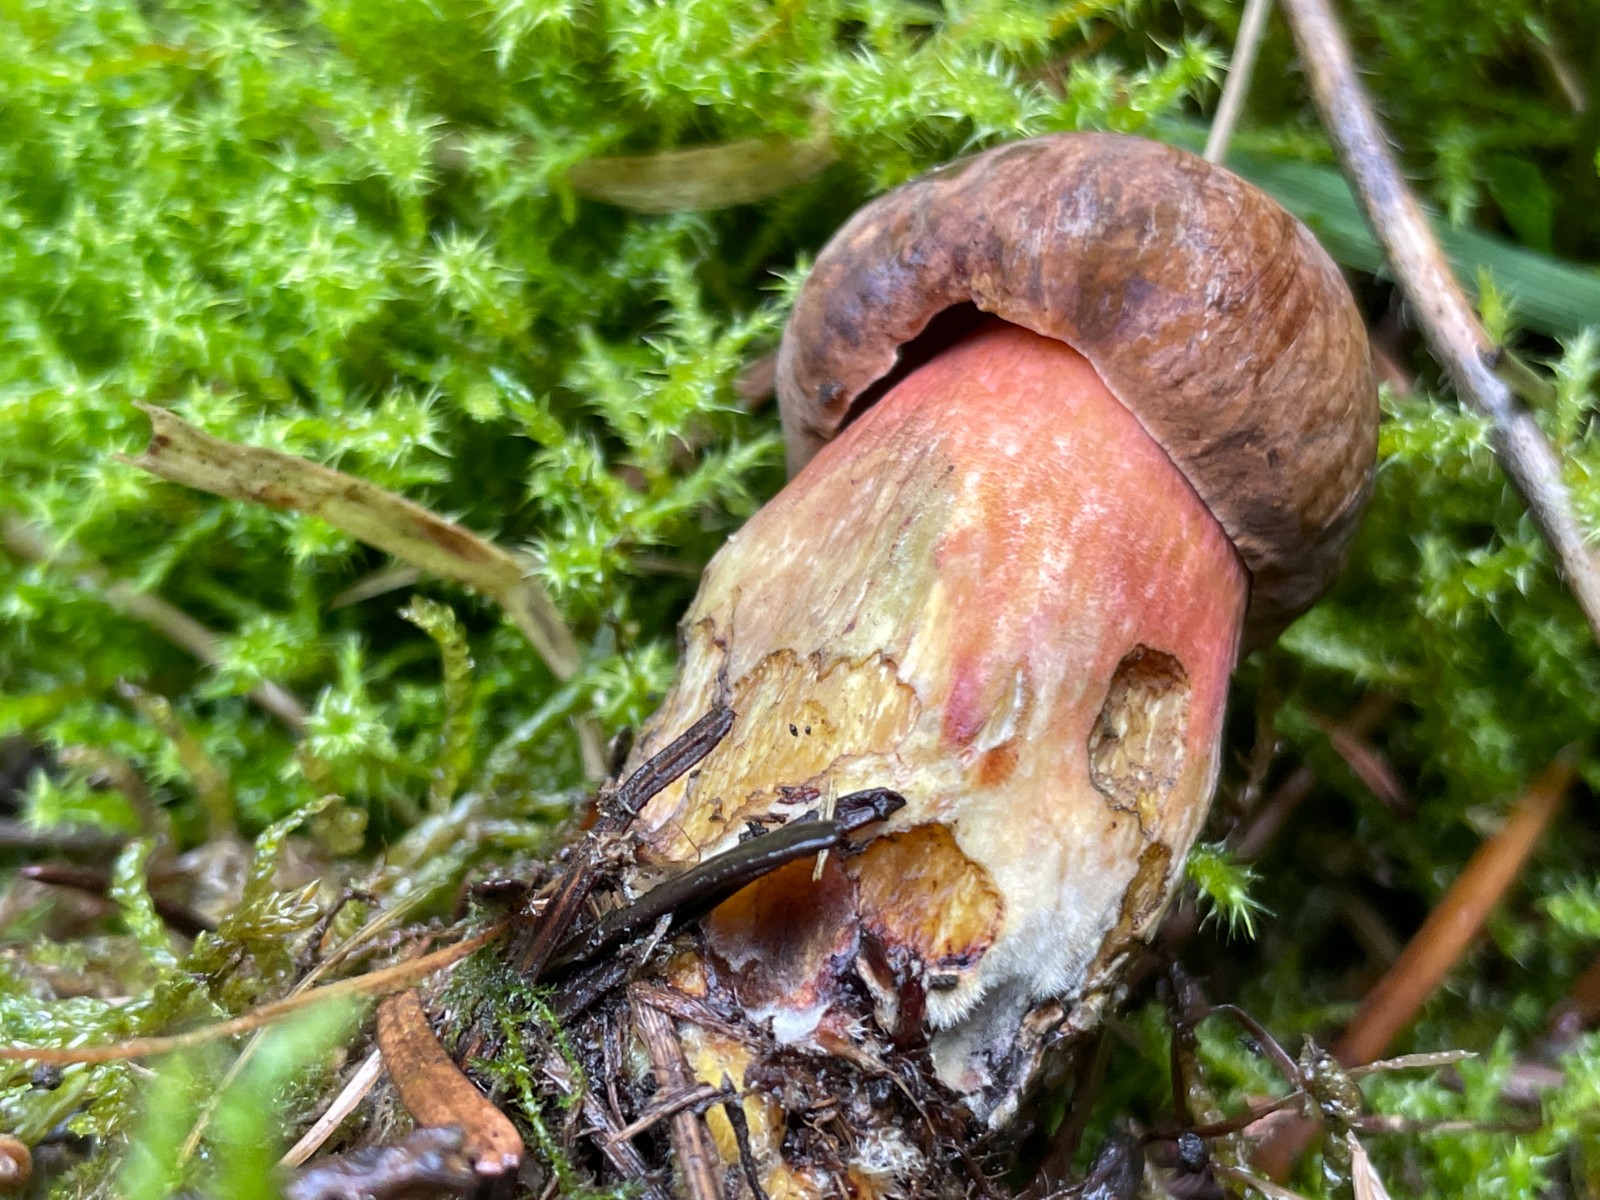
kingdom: Fungi
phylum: Basidiomycota
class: Agaricomycetes
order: Boletales
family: Boletaceae
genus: Neoboletus
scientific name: Neoboletus erythropus
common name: punktstokket indigorørhat
